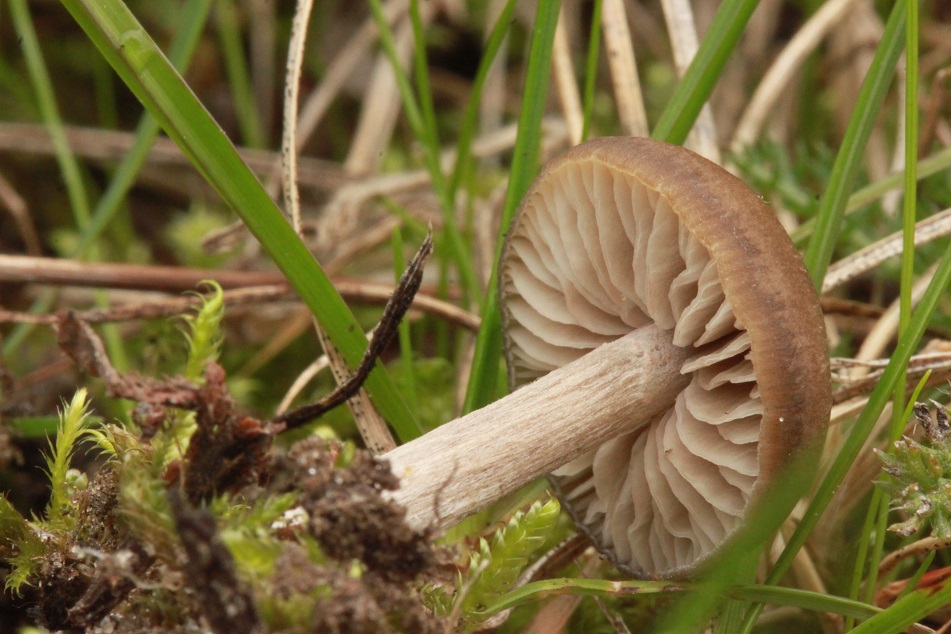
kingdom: Fungi
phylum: Basidiomycota
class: Agaricomycetes
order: Agaricales
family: Entolomataceae
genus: Entoloma
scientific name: Entoloma sericeum
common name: silkeglinsende rødblad
